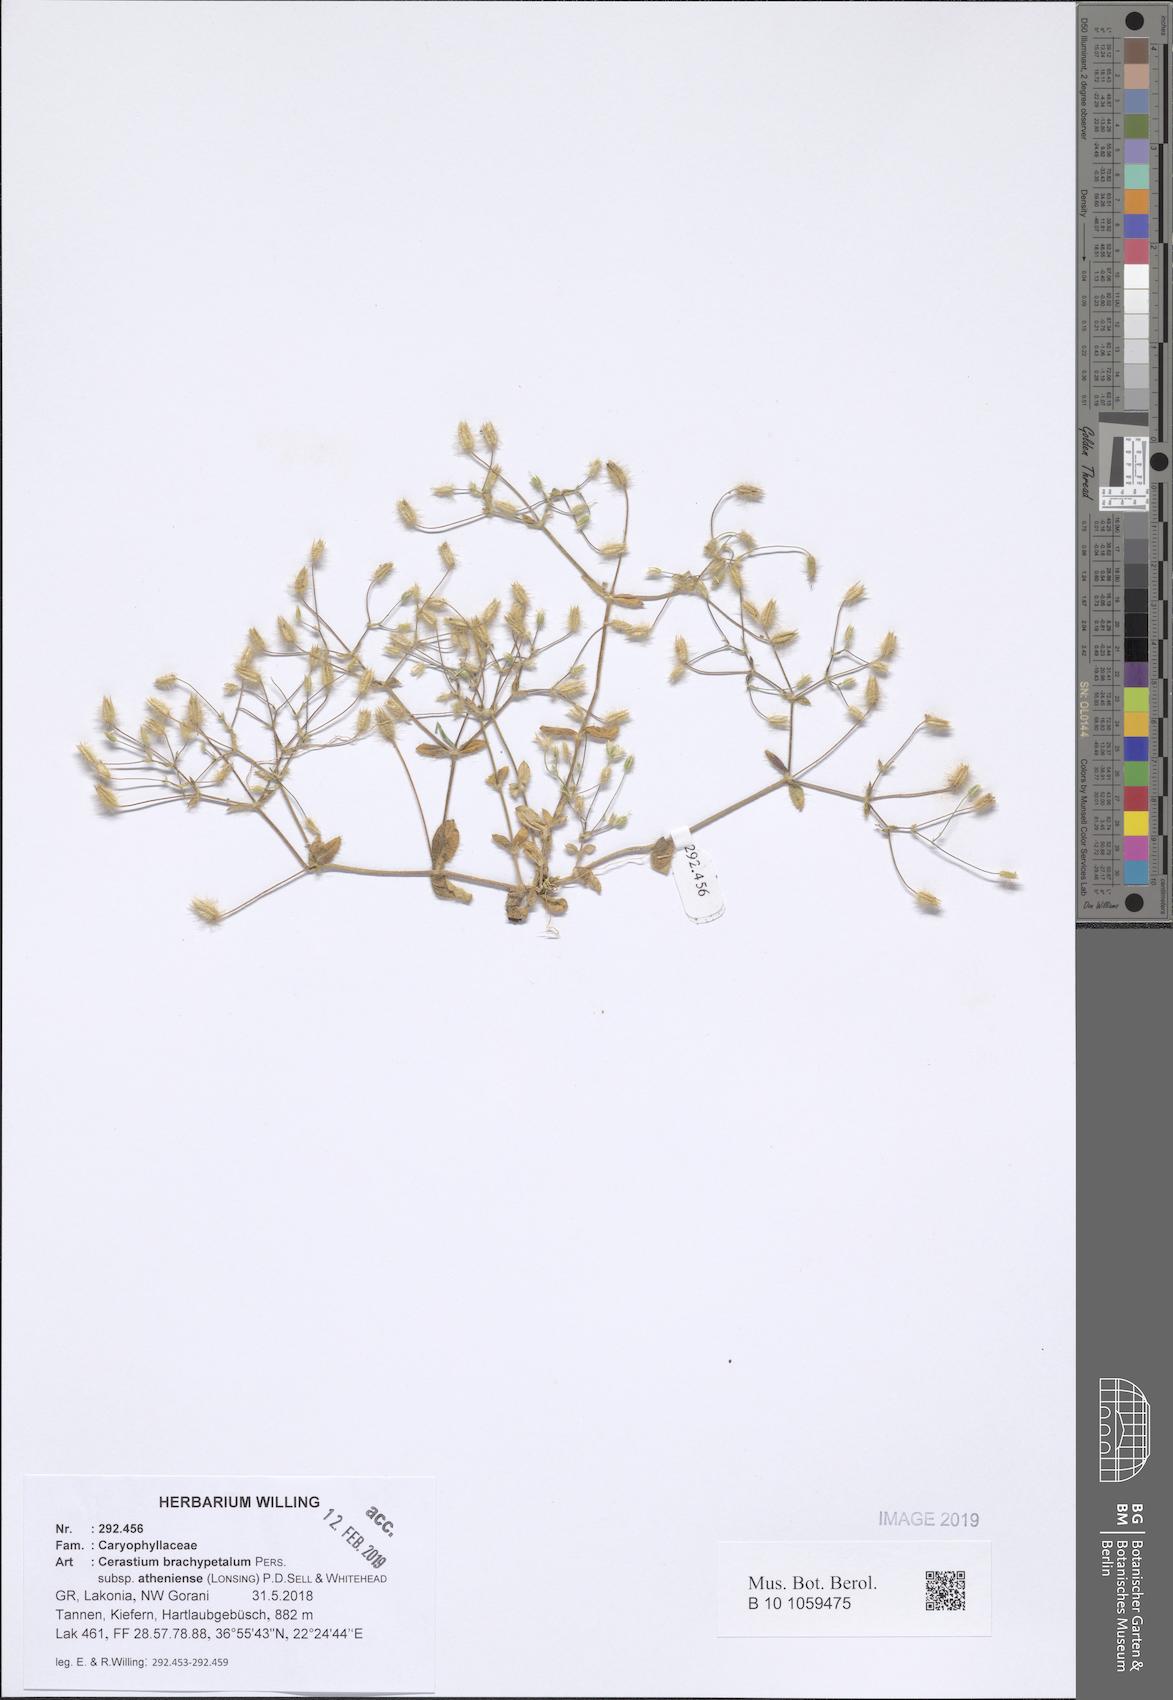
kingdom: Plantae
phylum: Tracheophyta
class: Magnoliopsida
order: Caryophyllales
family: Caryophyllaceae
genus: Cerastium
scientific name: Cerastium brachypetalum
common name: Grey mouse-ear
